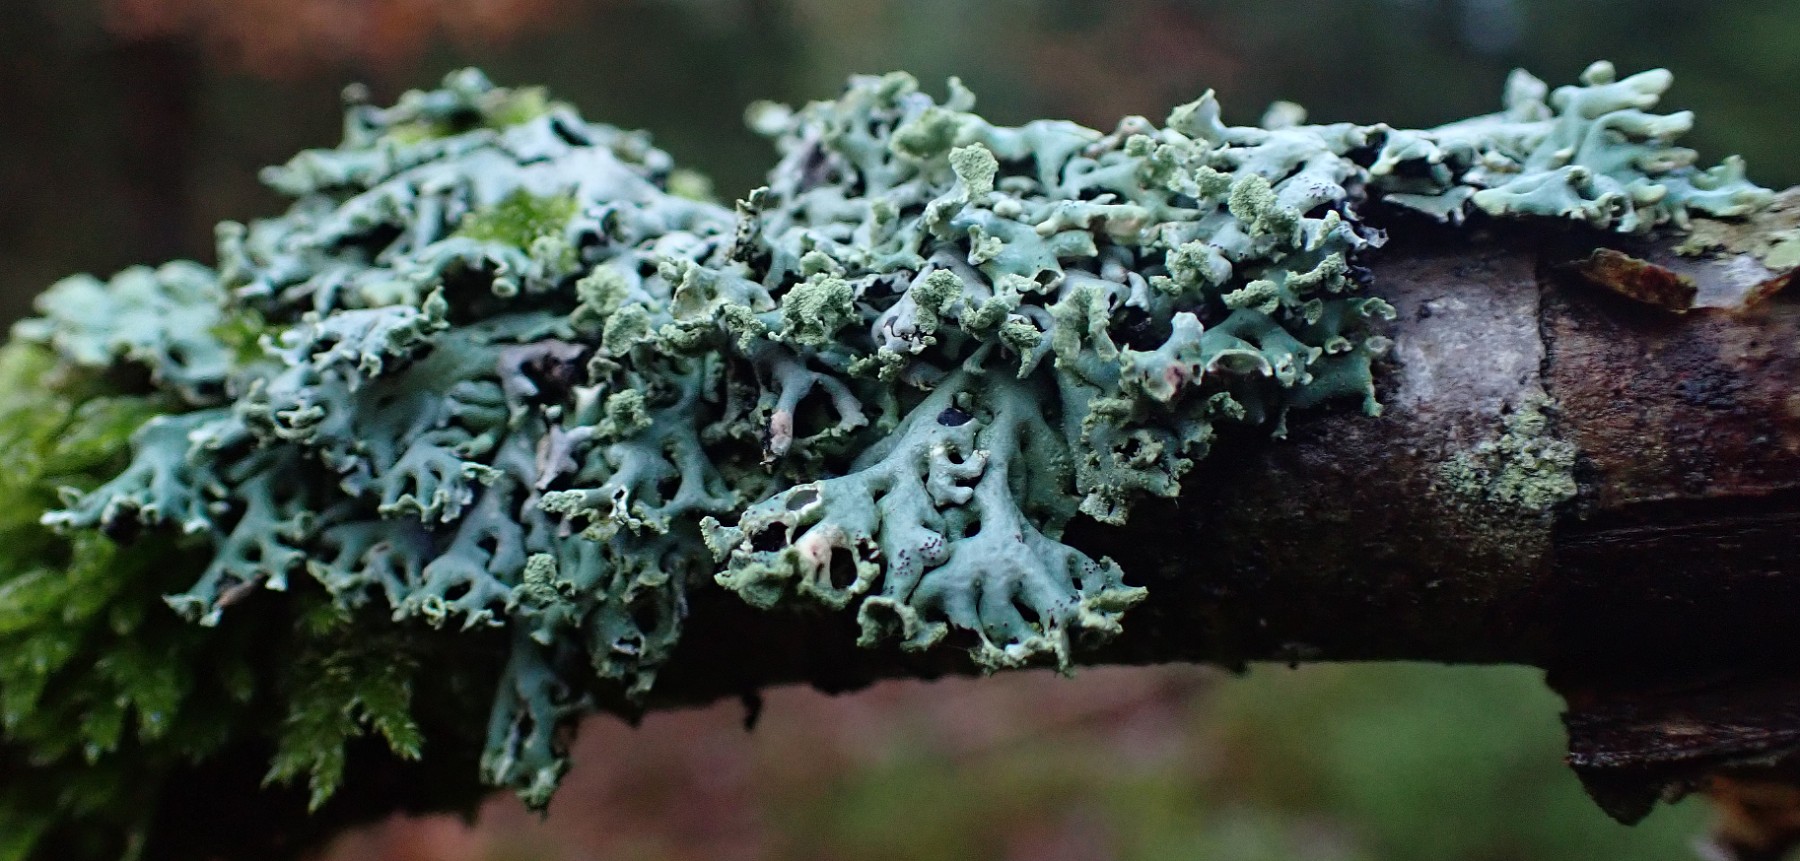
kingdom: Fungi
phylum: Ascomycota
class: Lecanoromycetes
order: Lecanorales
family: Parmeliaceae
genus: Hypogymnia
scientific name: Hypogymnia physodes
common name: almindelig kvistlav
